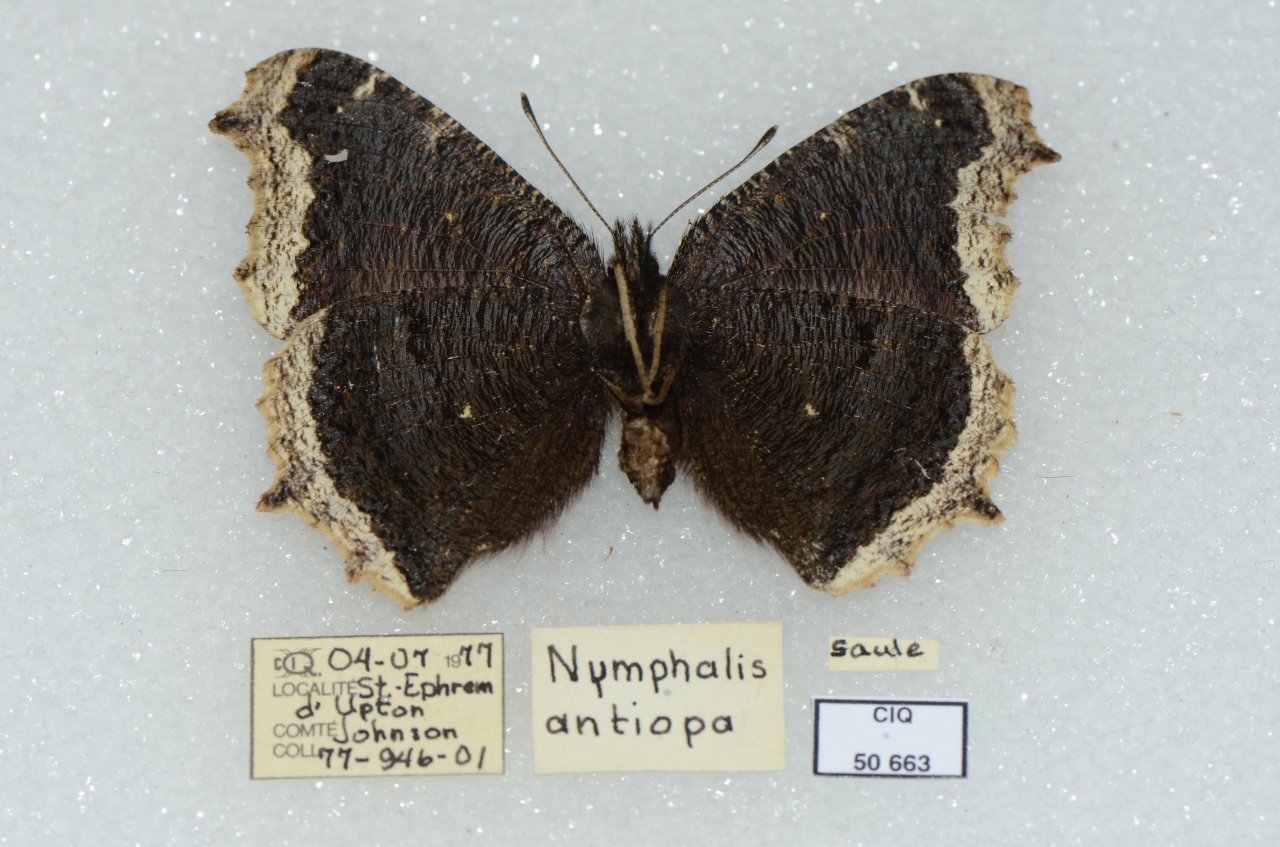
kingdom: Animalia
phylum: Arthropoda
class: Insecta
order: Lepidoptera
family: Nymphalidae
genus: Nymphalis
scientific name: Nymphalis antiopa
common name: Mourning Cloak
